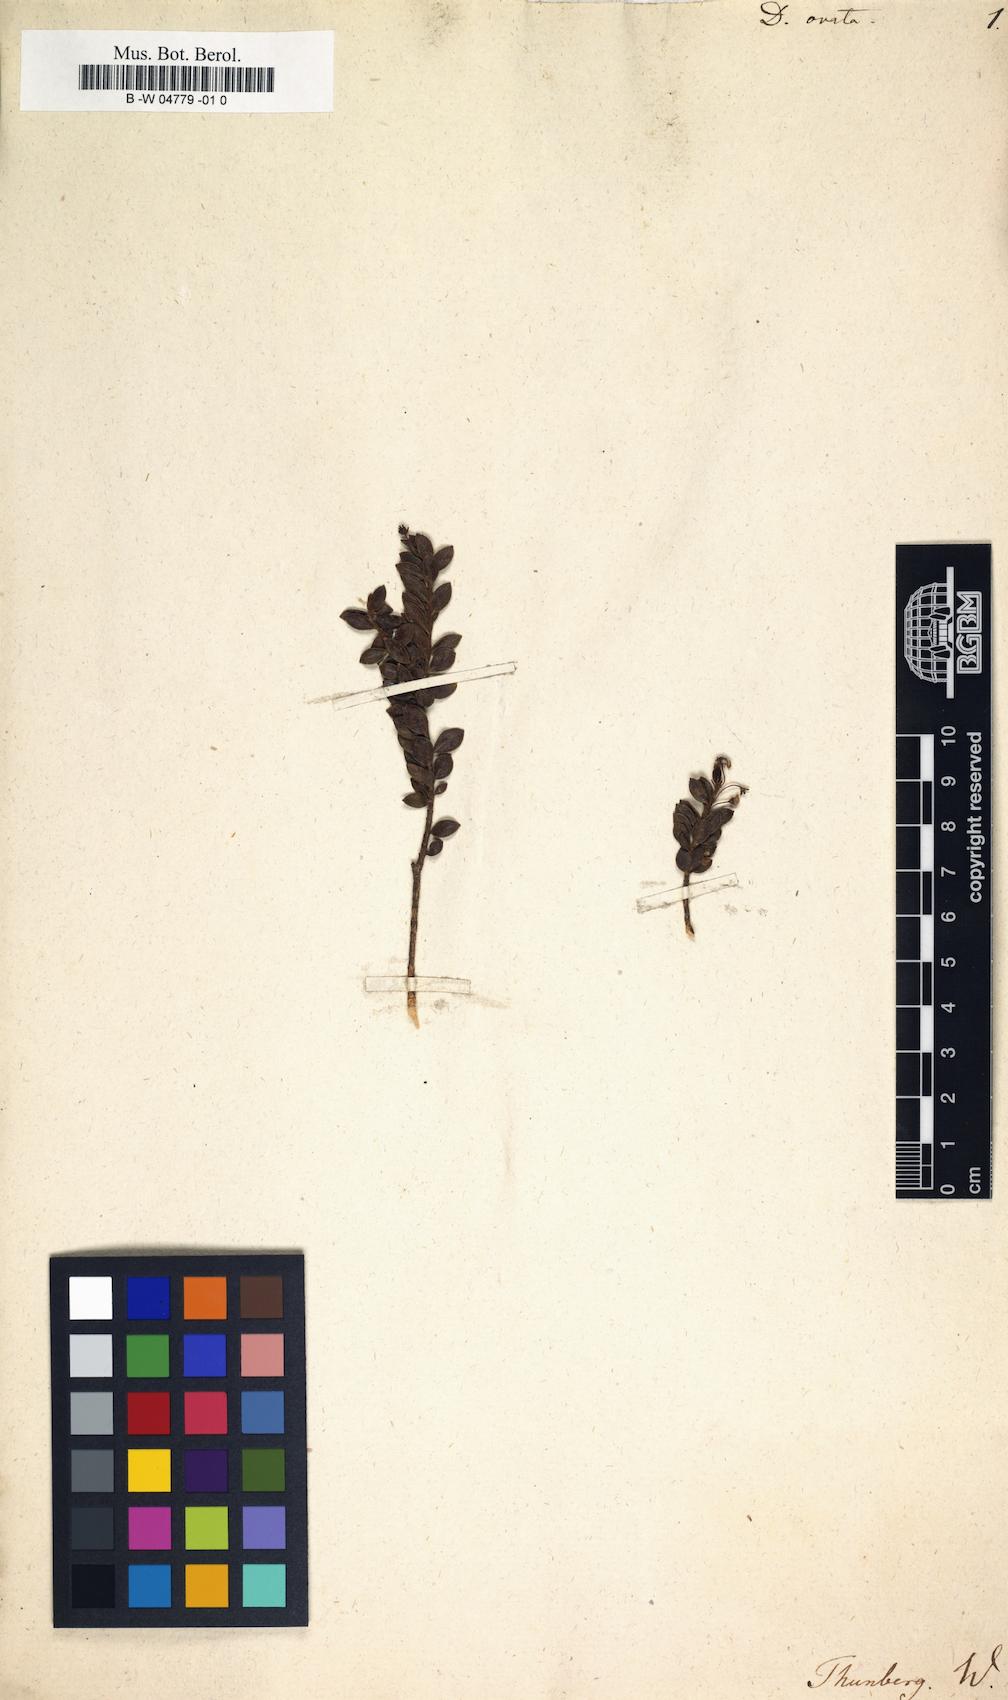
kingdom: Plantae
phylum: Tracheophyta
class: Magnoliopsida
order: Sapindales
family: Rutaceae
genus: Agathosma
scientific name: Agathosma ovata
